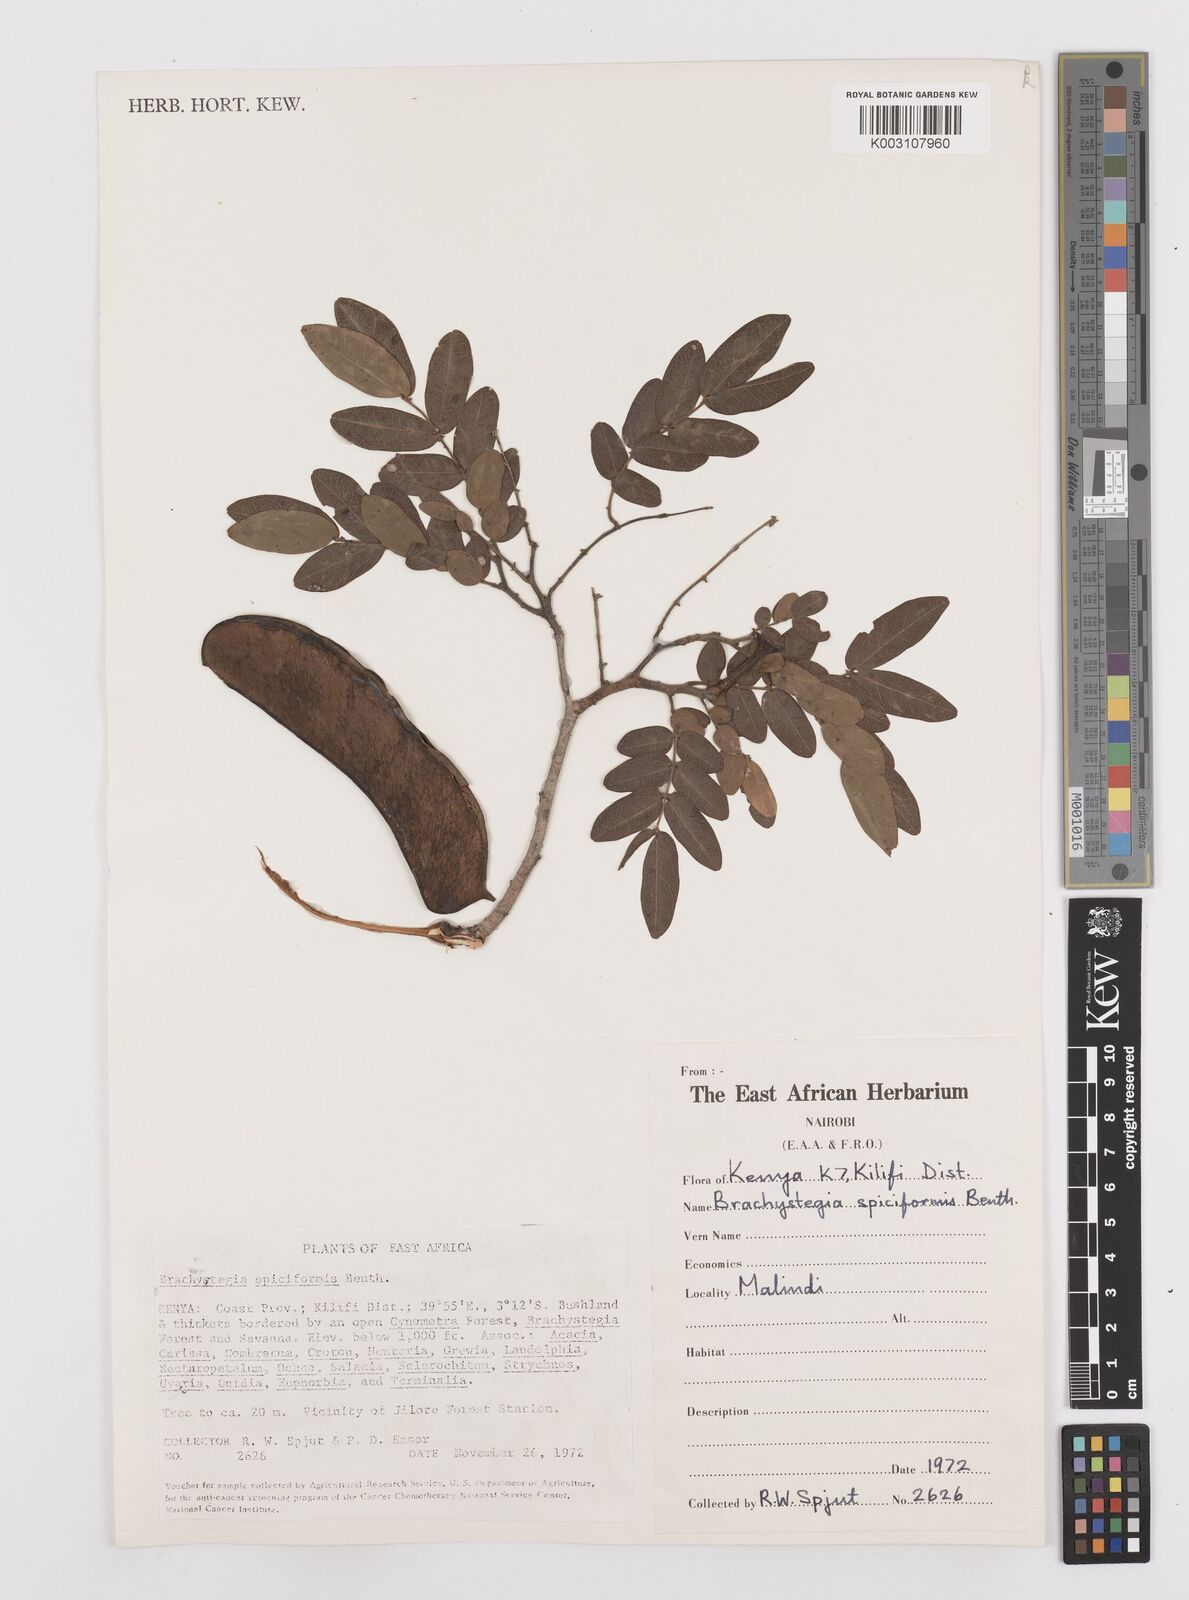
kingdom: Plantae
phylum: Tracheophyta
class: Magnoliopsida
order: Fabales
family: Fabaceae
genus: Brachystegia
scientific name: Brachystegia spiciformis
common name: Zebrawood
